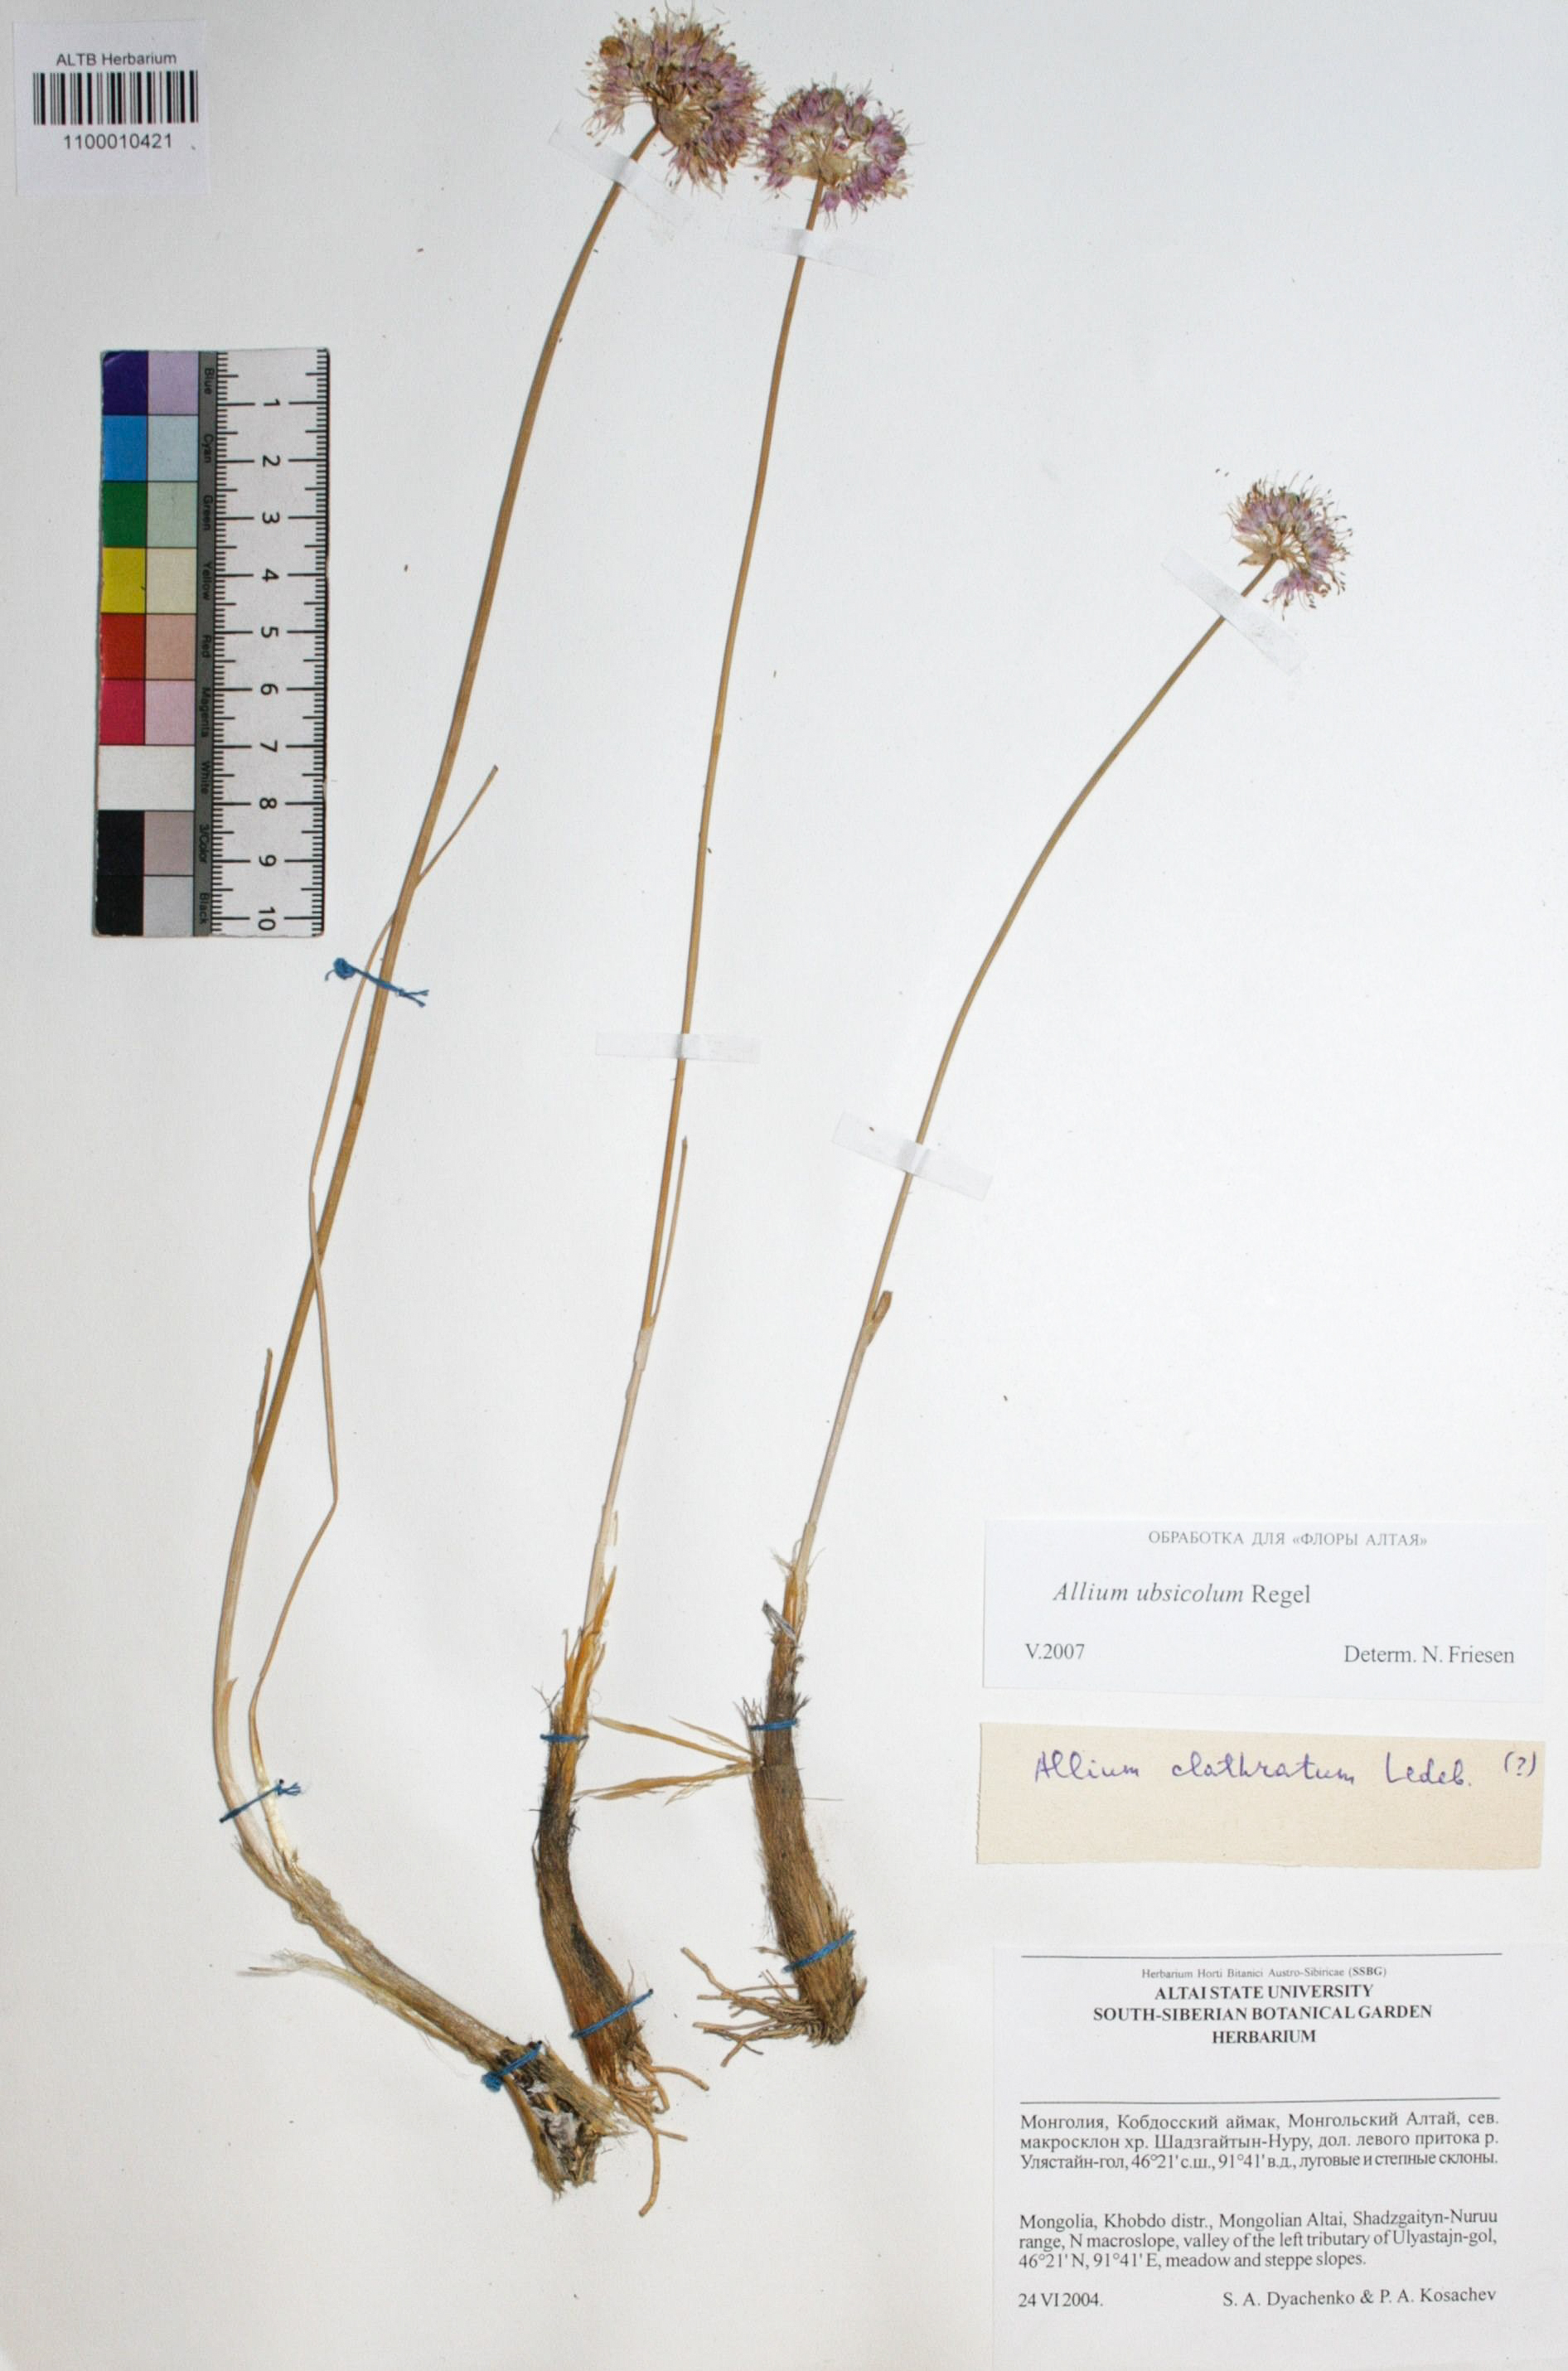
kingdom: Plantae
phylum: Tracheophyta
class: Liliopsida
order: Asparagales
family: Amaryllidaceae
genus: Allium
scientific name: Allium ubsicola
